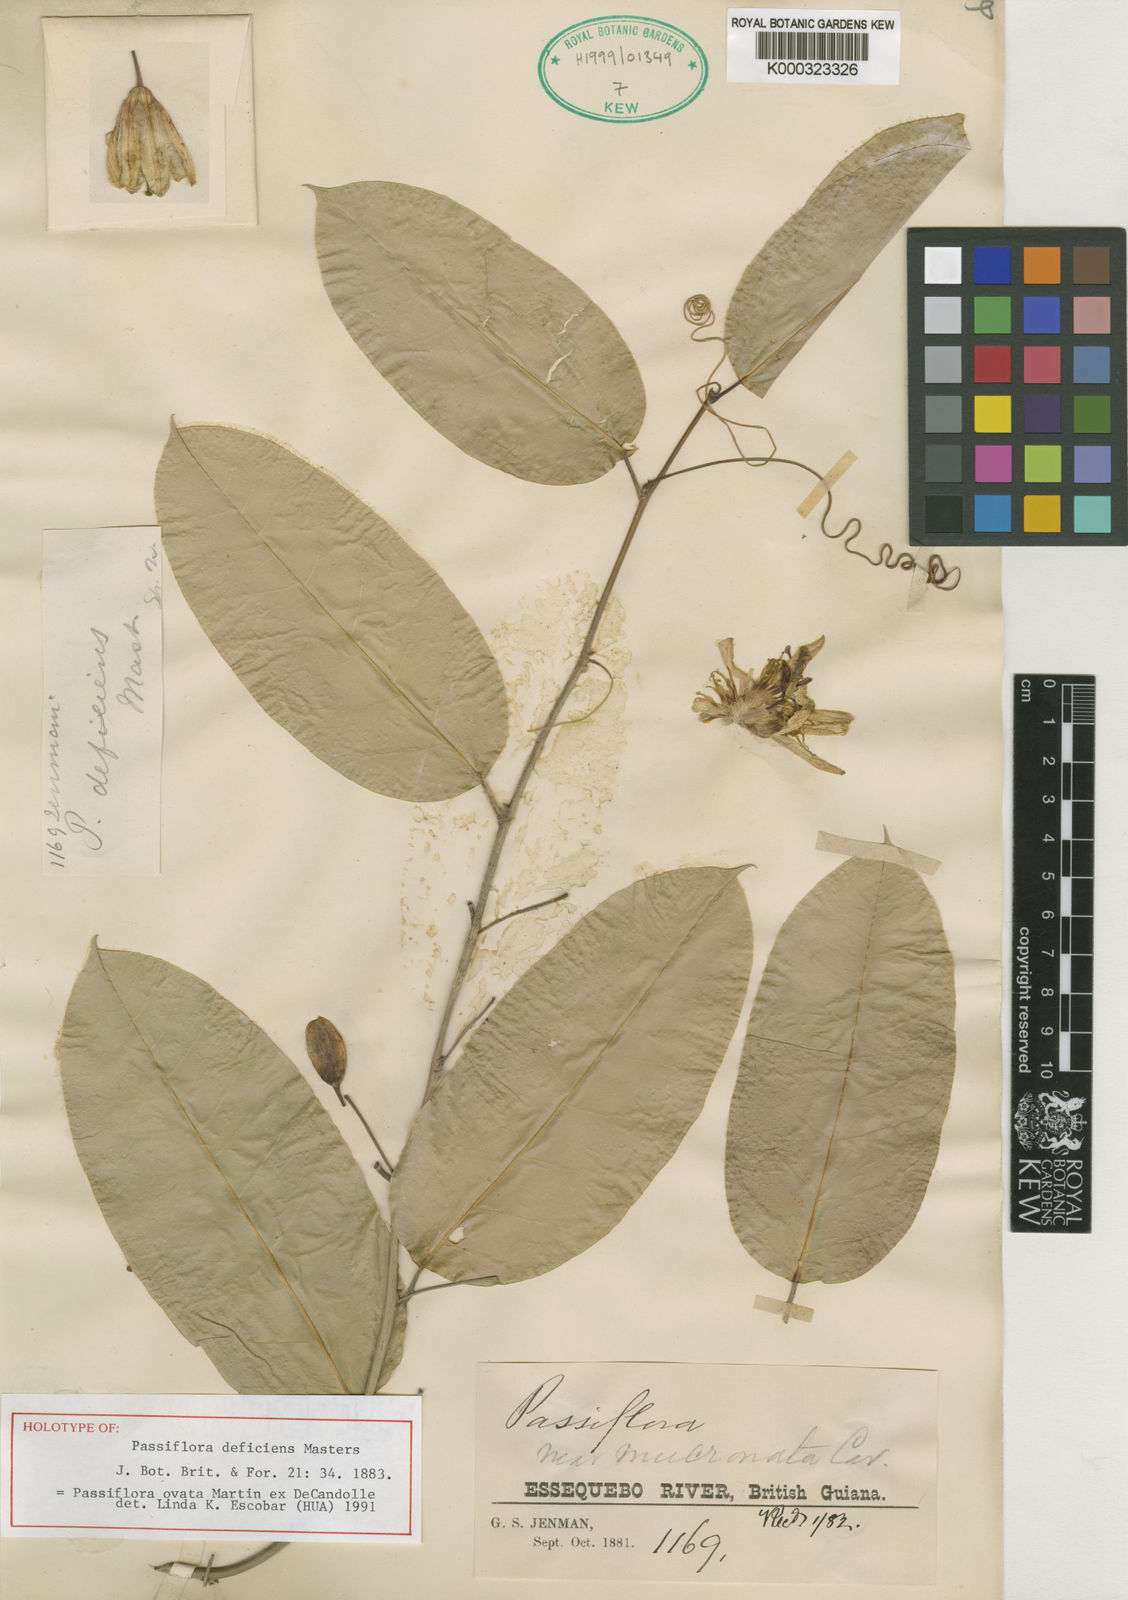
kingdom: Plantae
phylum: Tracheophyta
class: Magnoliopsida
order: Malpighiales
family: Passifloraceae
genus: Passiflora
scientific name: Passiflora ovata
